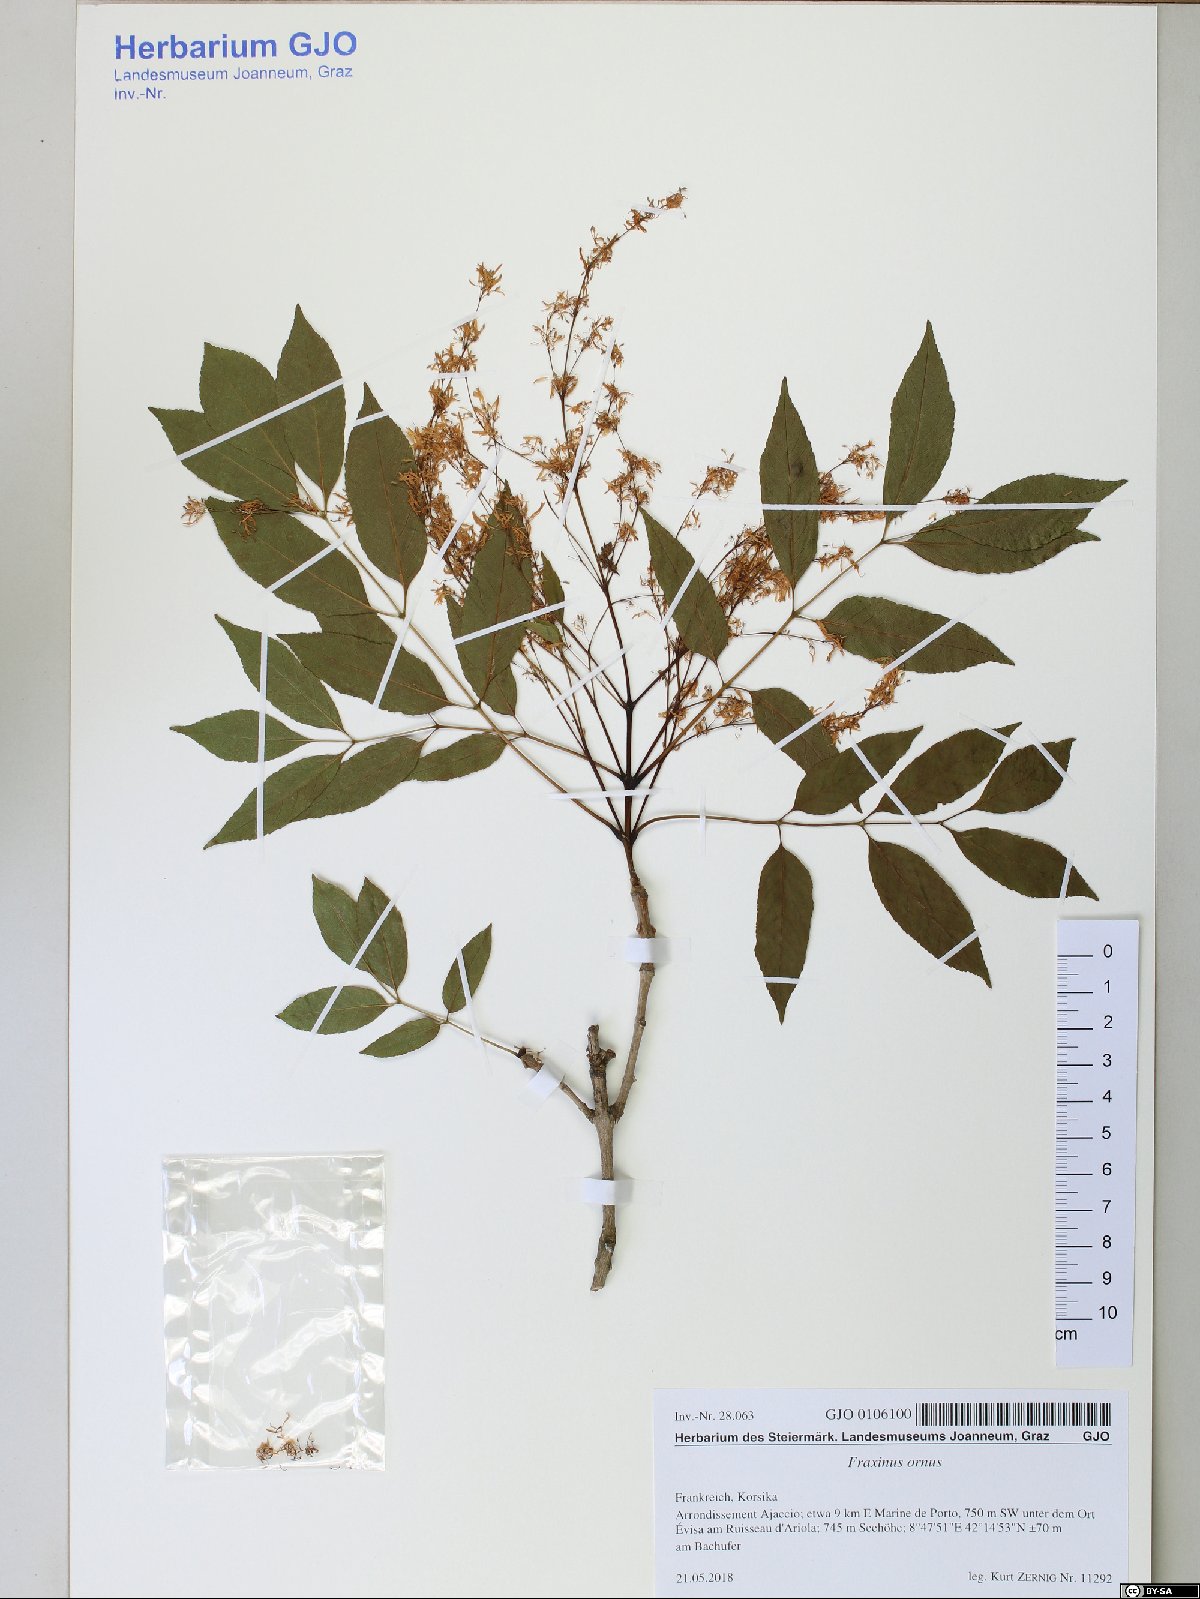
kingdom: Plantae
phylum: Tracheophyta
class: Magnoliopsida
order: Lamiales
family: Oleaceae
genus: Fraxinus
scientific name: Fraxinus ornus
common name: Manna ash
